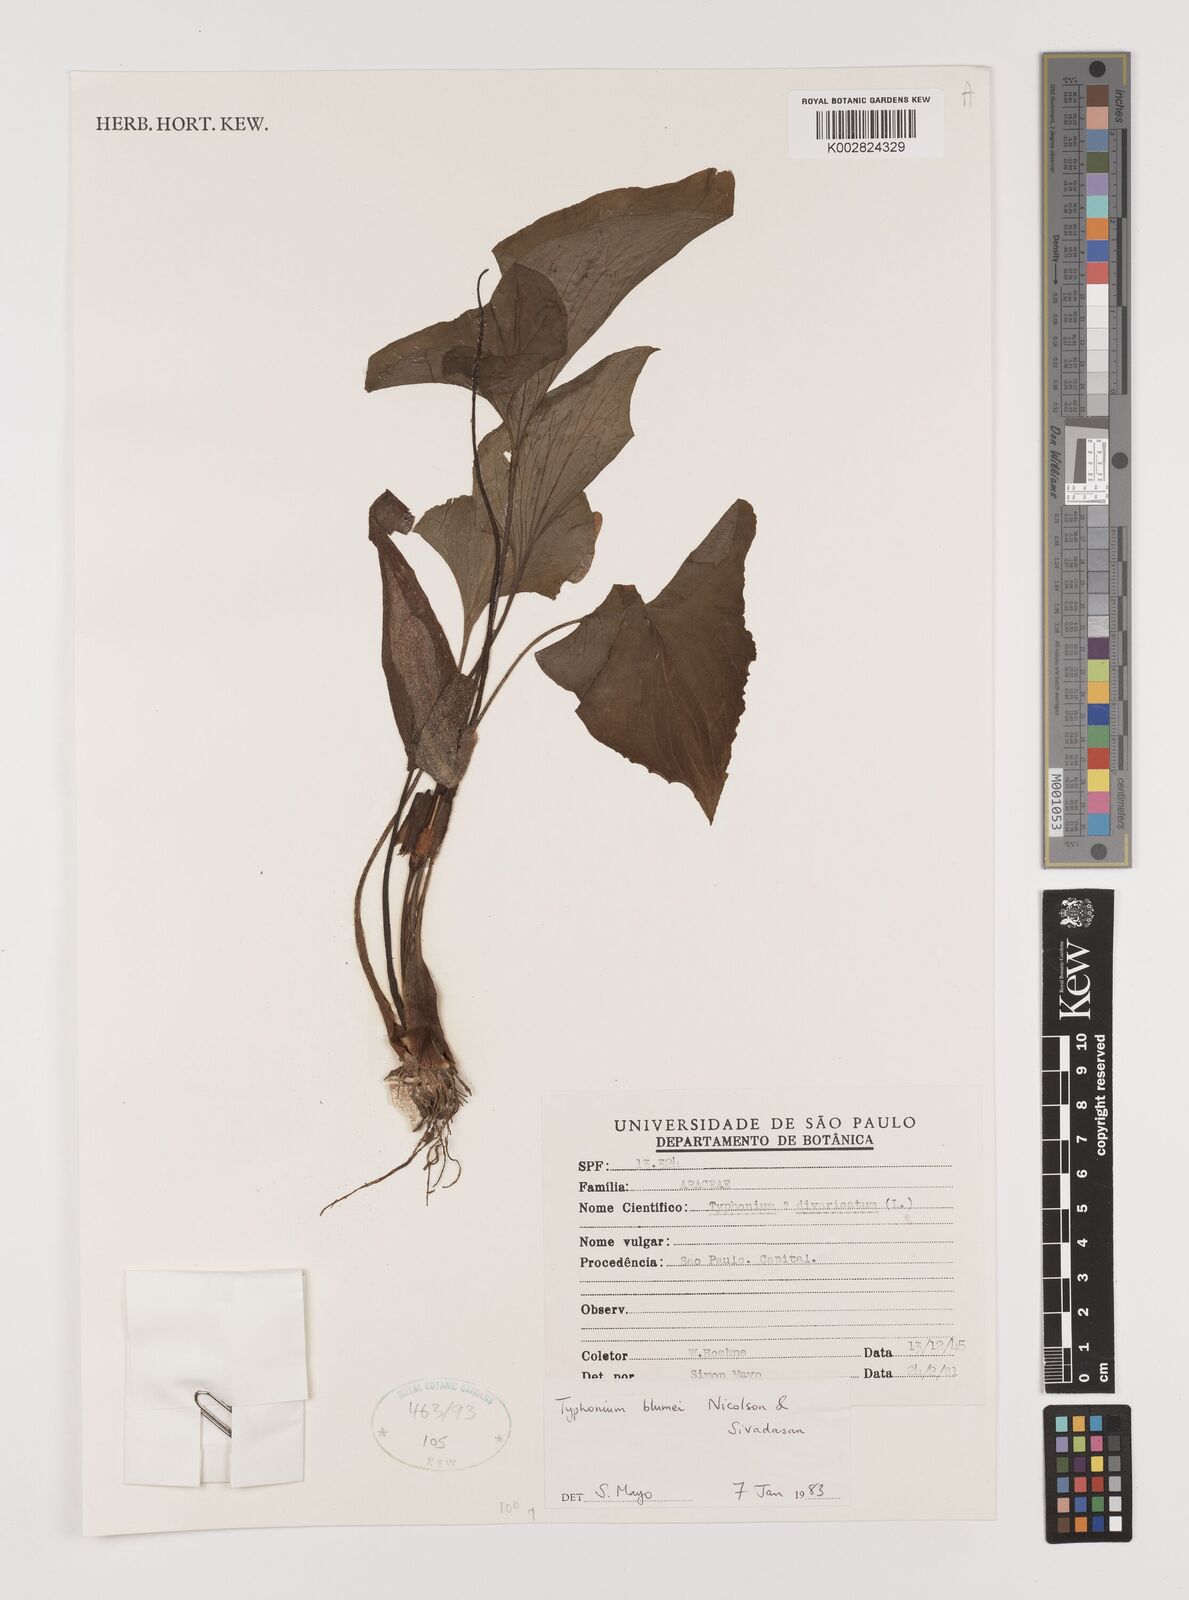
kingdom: Plantae
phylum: Tracheophyta
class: Liliopsida
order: Alismatales
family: Araceae
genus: Typhonium
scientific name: Typhonium blumei
